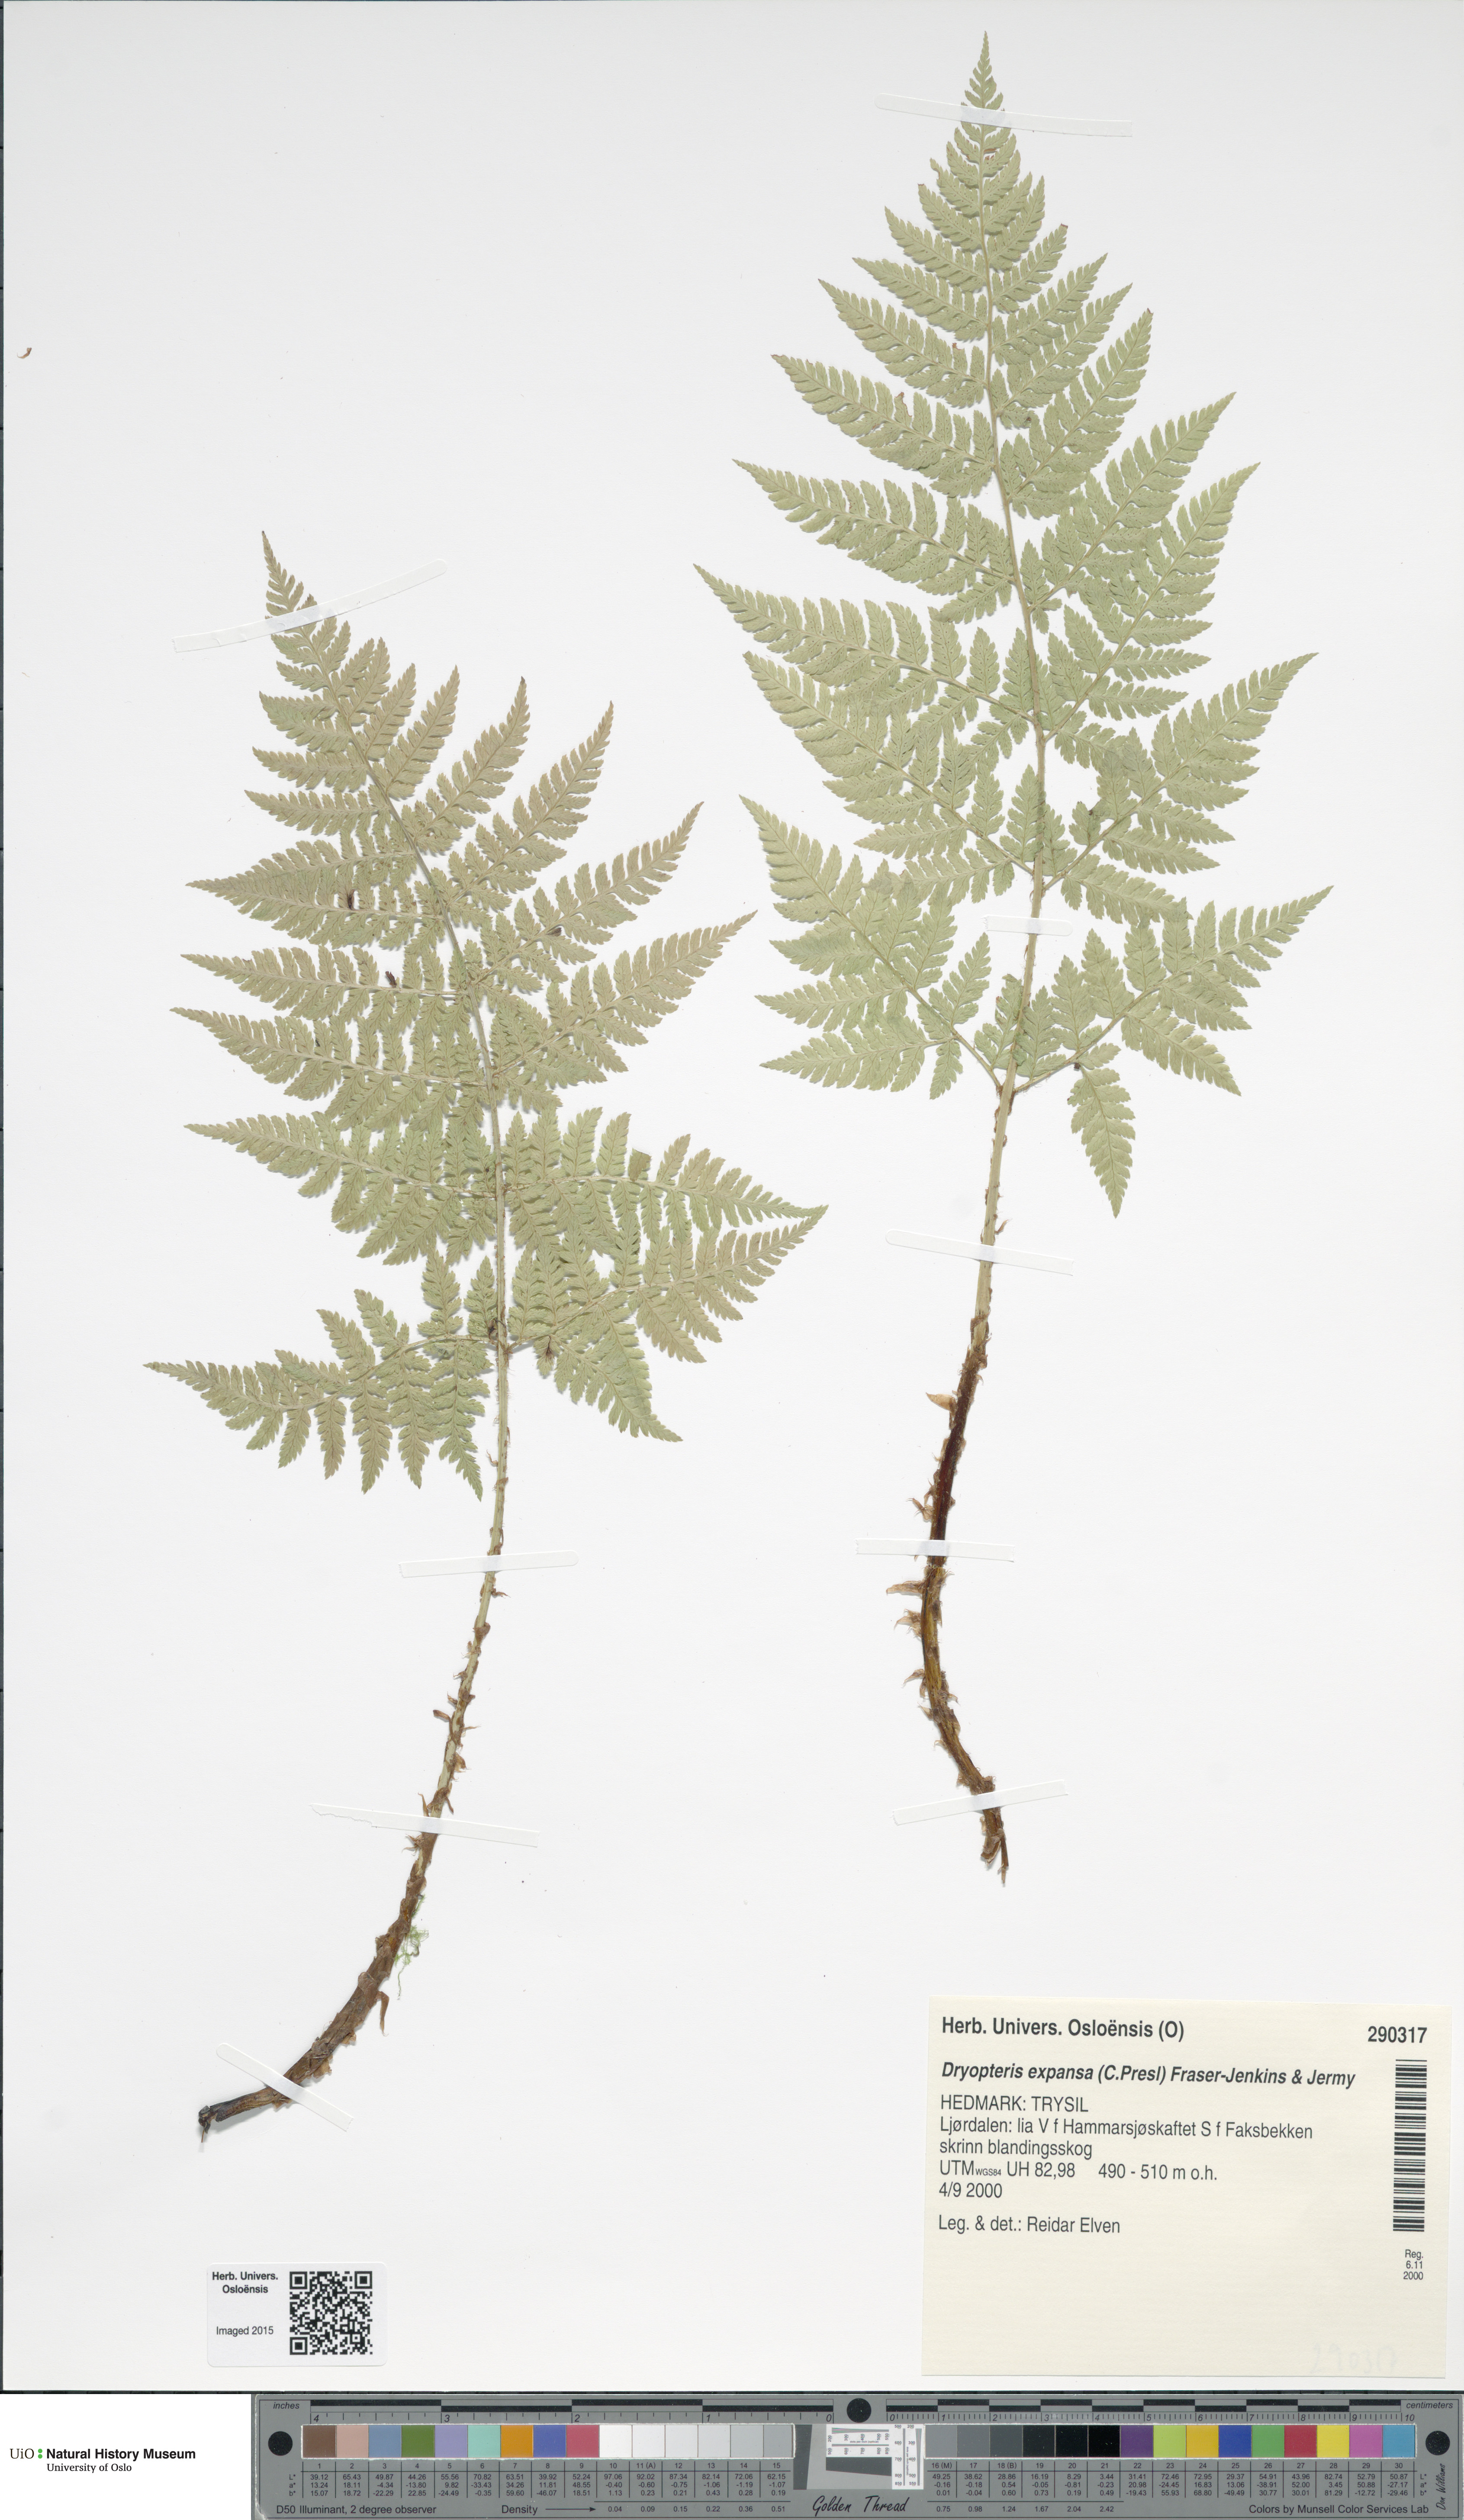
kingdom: Plantae
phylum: Tracheophyta
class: Polypodiopsida
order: Polypodiales
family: Dryopteridaceae
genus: Dryopteris
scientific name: Dryopteris expansa
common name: Northern buckler fern
